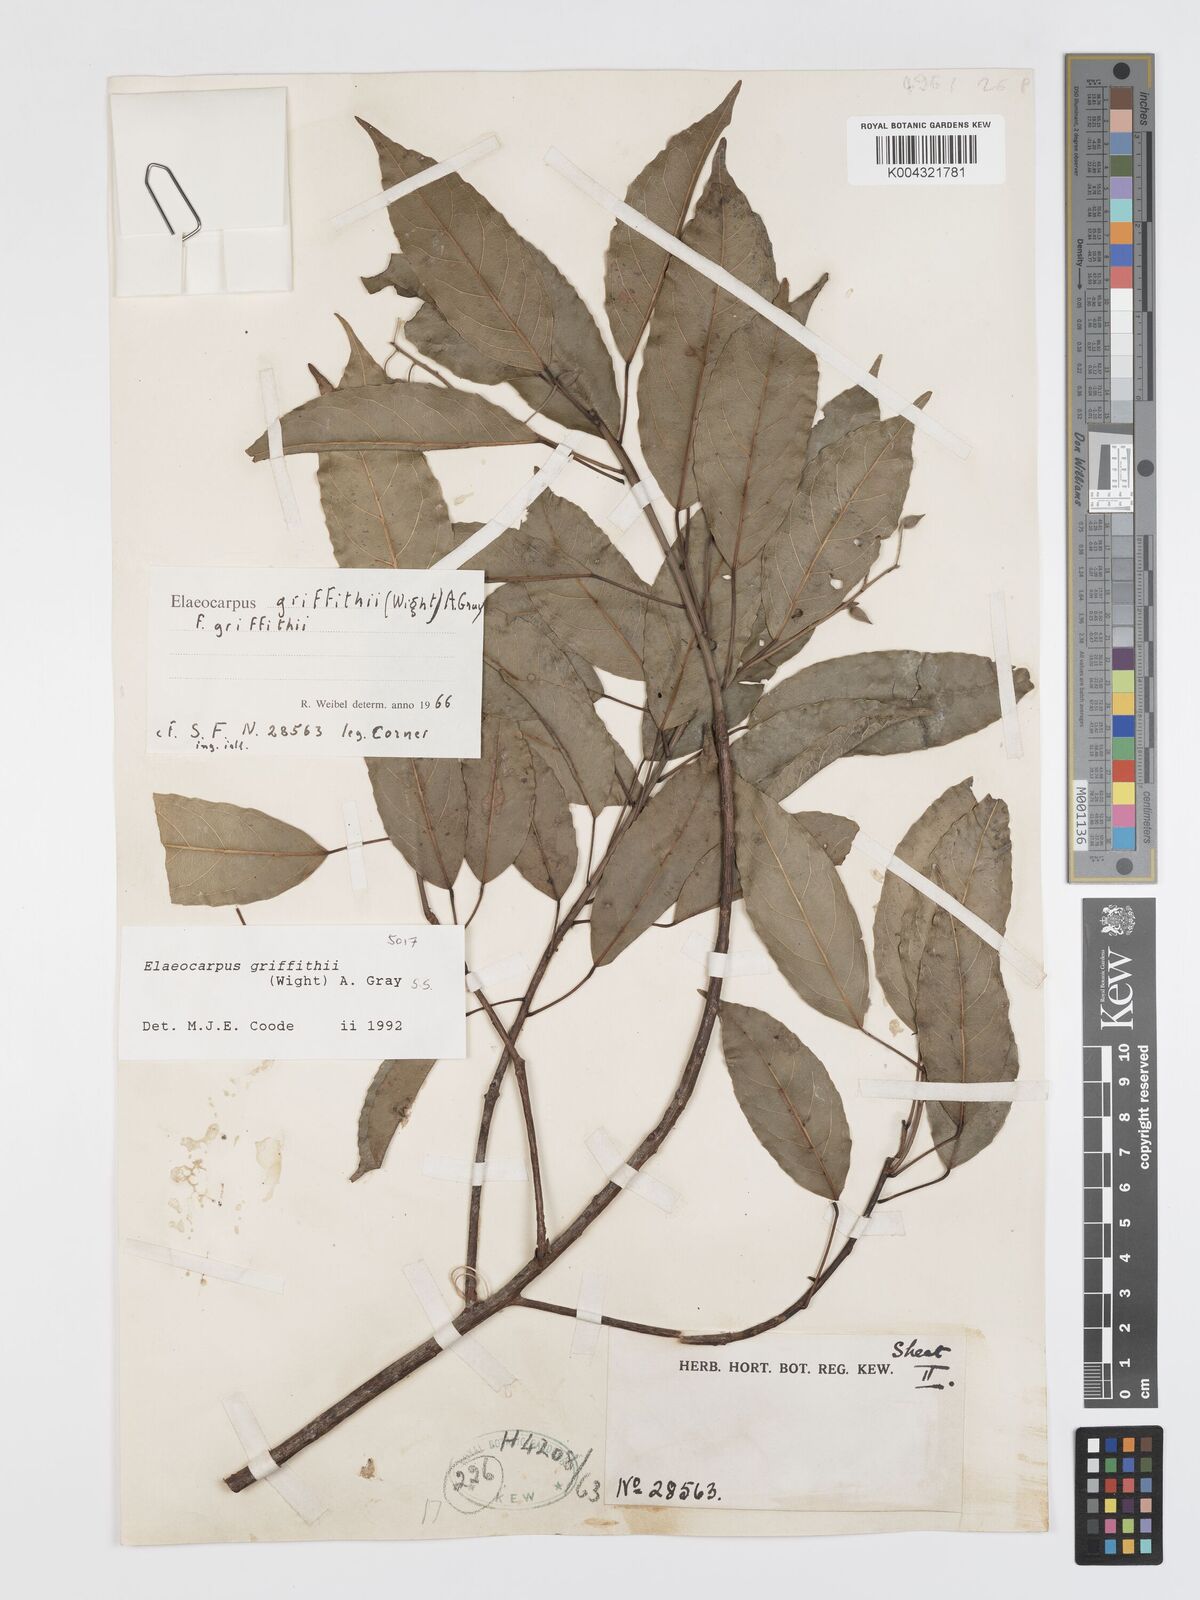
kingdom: Plantae
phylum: Tracheophyta
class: Magnoliopsida
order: Oxalidales
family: Elaeocarpaceae
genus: Elaeocarpus
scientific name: Elaeocarpus griffithii
